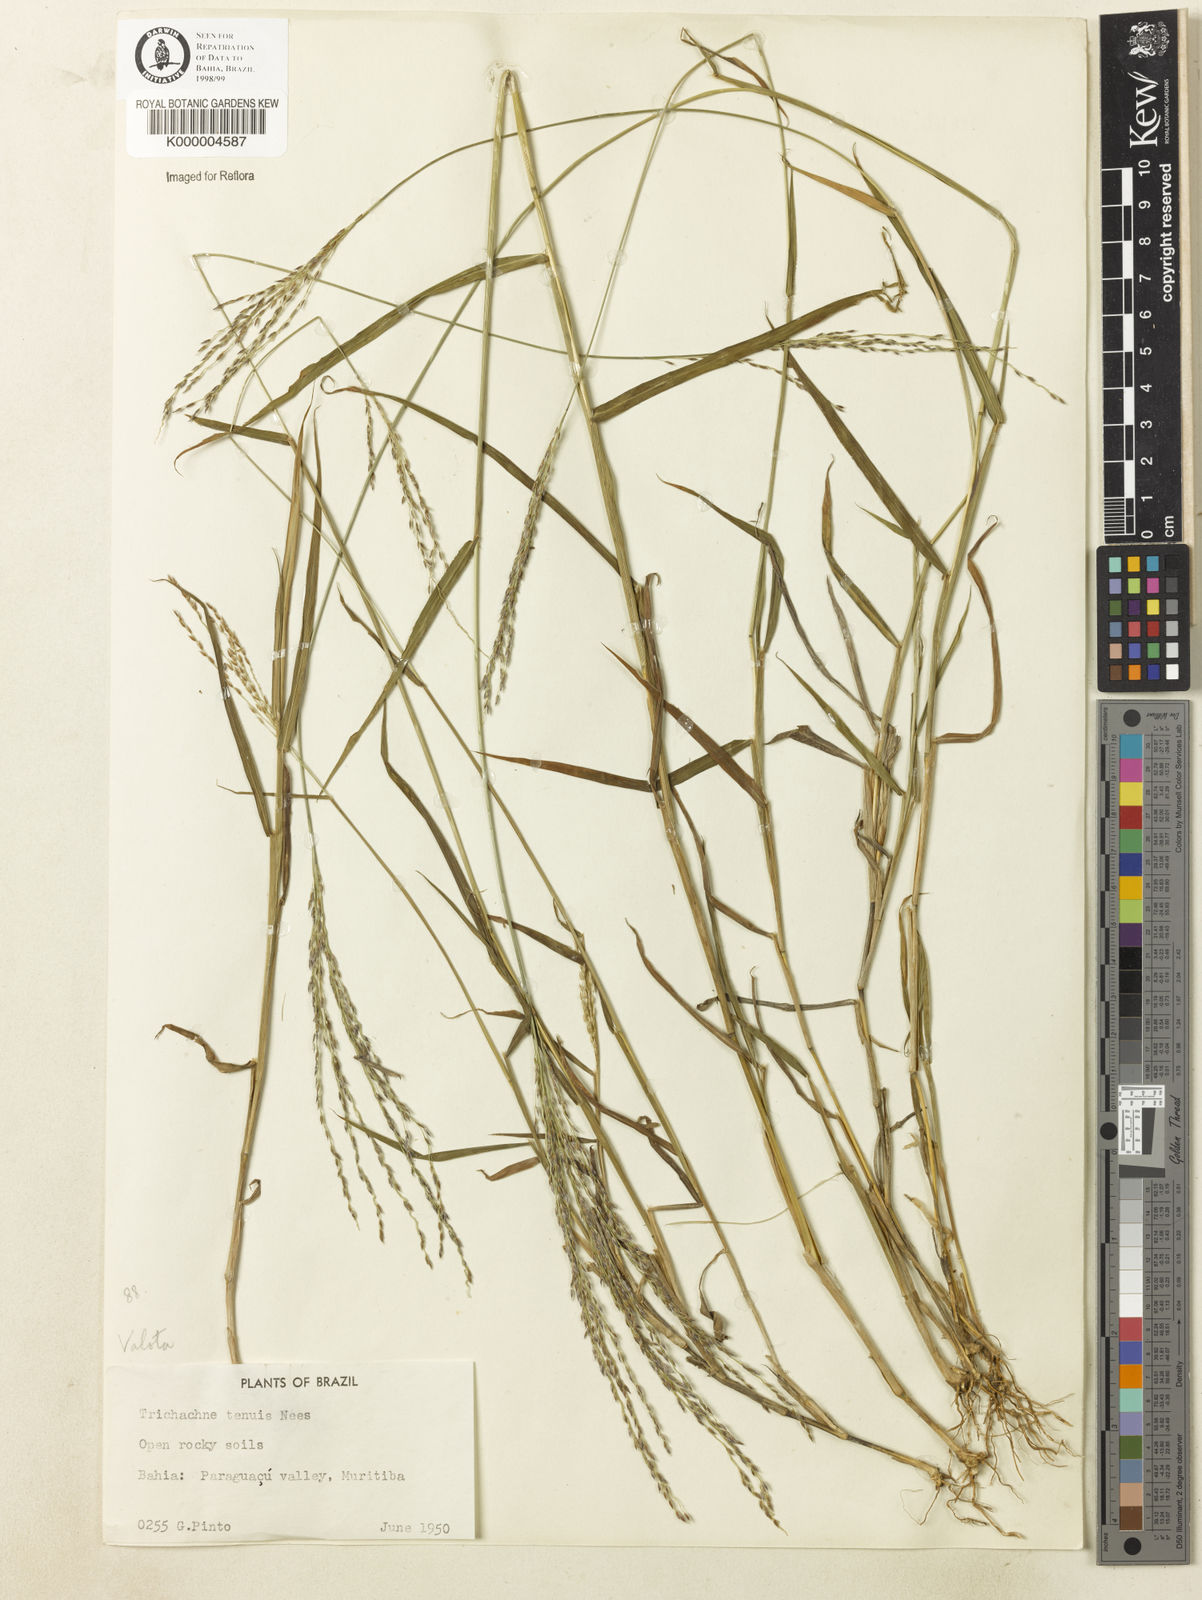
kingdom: Plantae
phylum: Tracheophyta
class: Liliopsida
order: Poales
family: Poaceae
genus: Digitaria
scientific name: Digitaria tenuis
